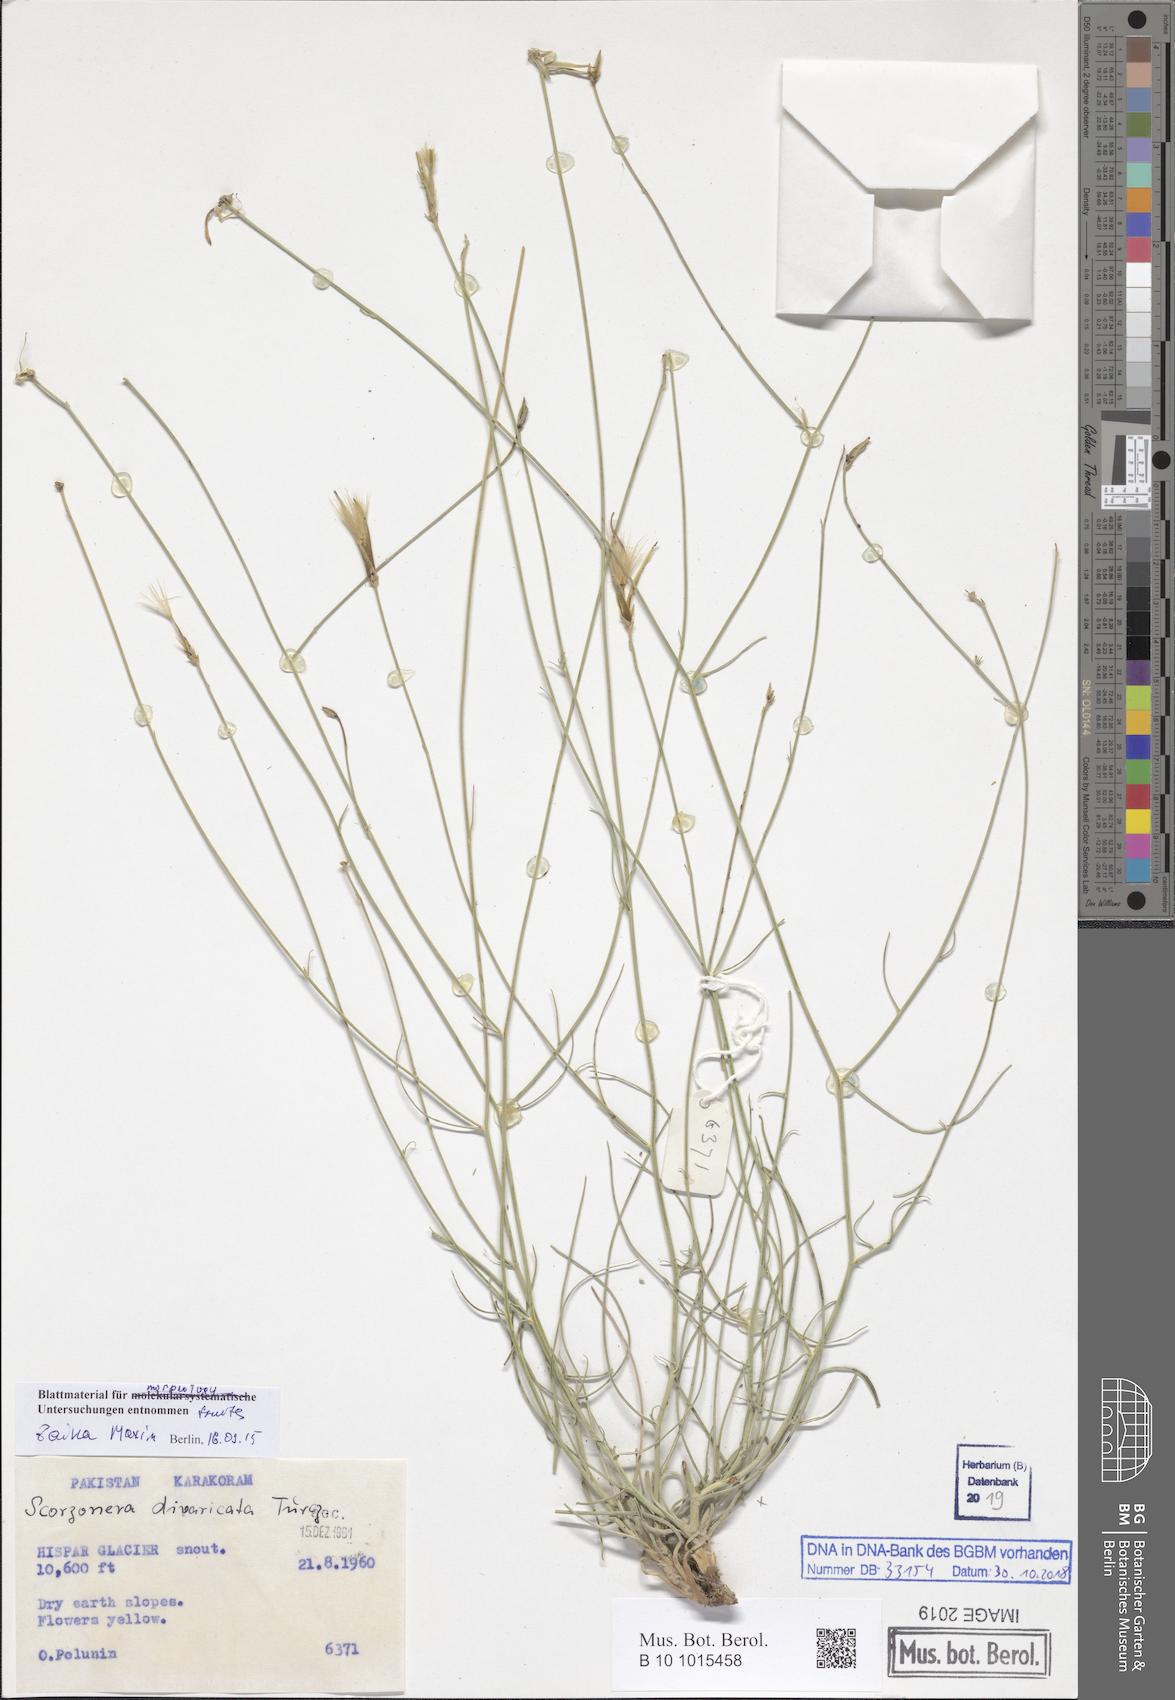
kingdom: Plantae
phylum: Tracheophyta
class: Magnoliopsida
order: Asterales
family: Asteraceae
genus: Scorzonera
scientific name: Scorzonera virgata
